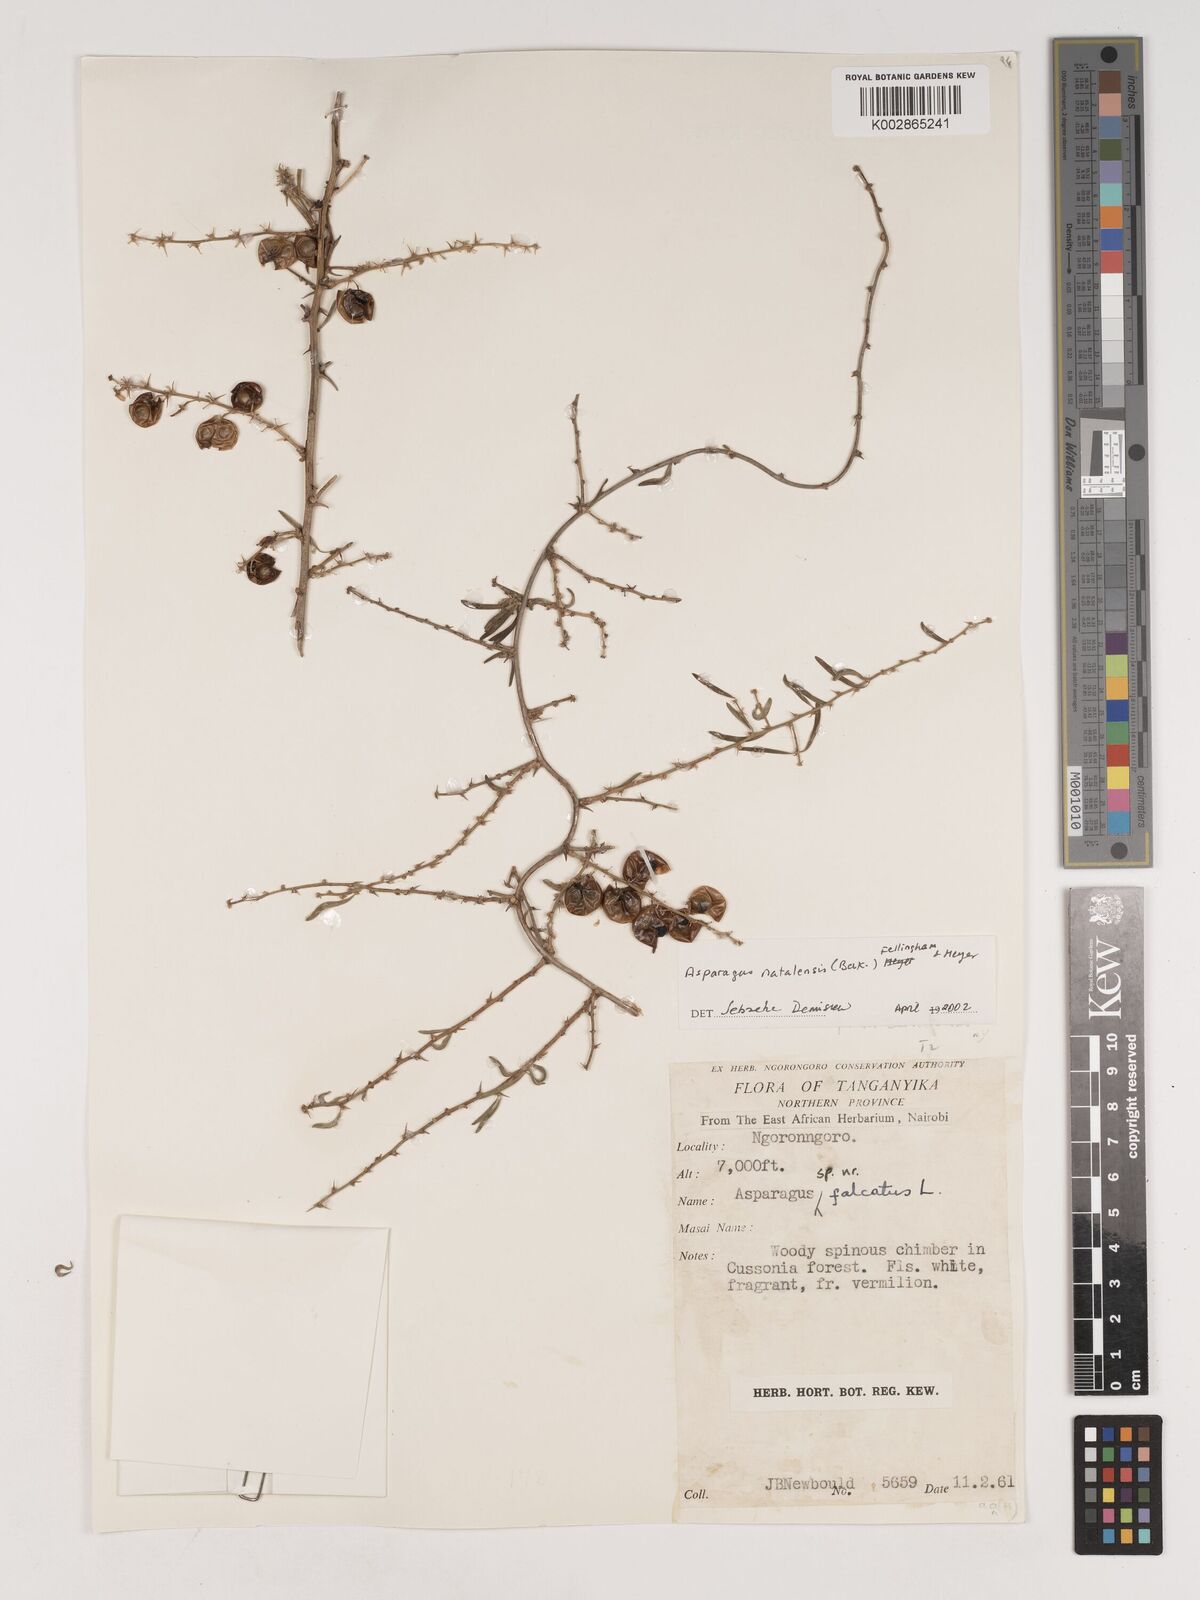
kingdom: Plantae
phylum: Tracheophyta
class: Liliopsida
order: Asparagales
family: Asparagaceae
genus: Asparagus
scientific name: Asparagus natalensis
